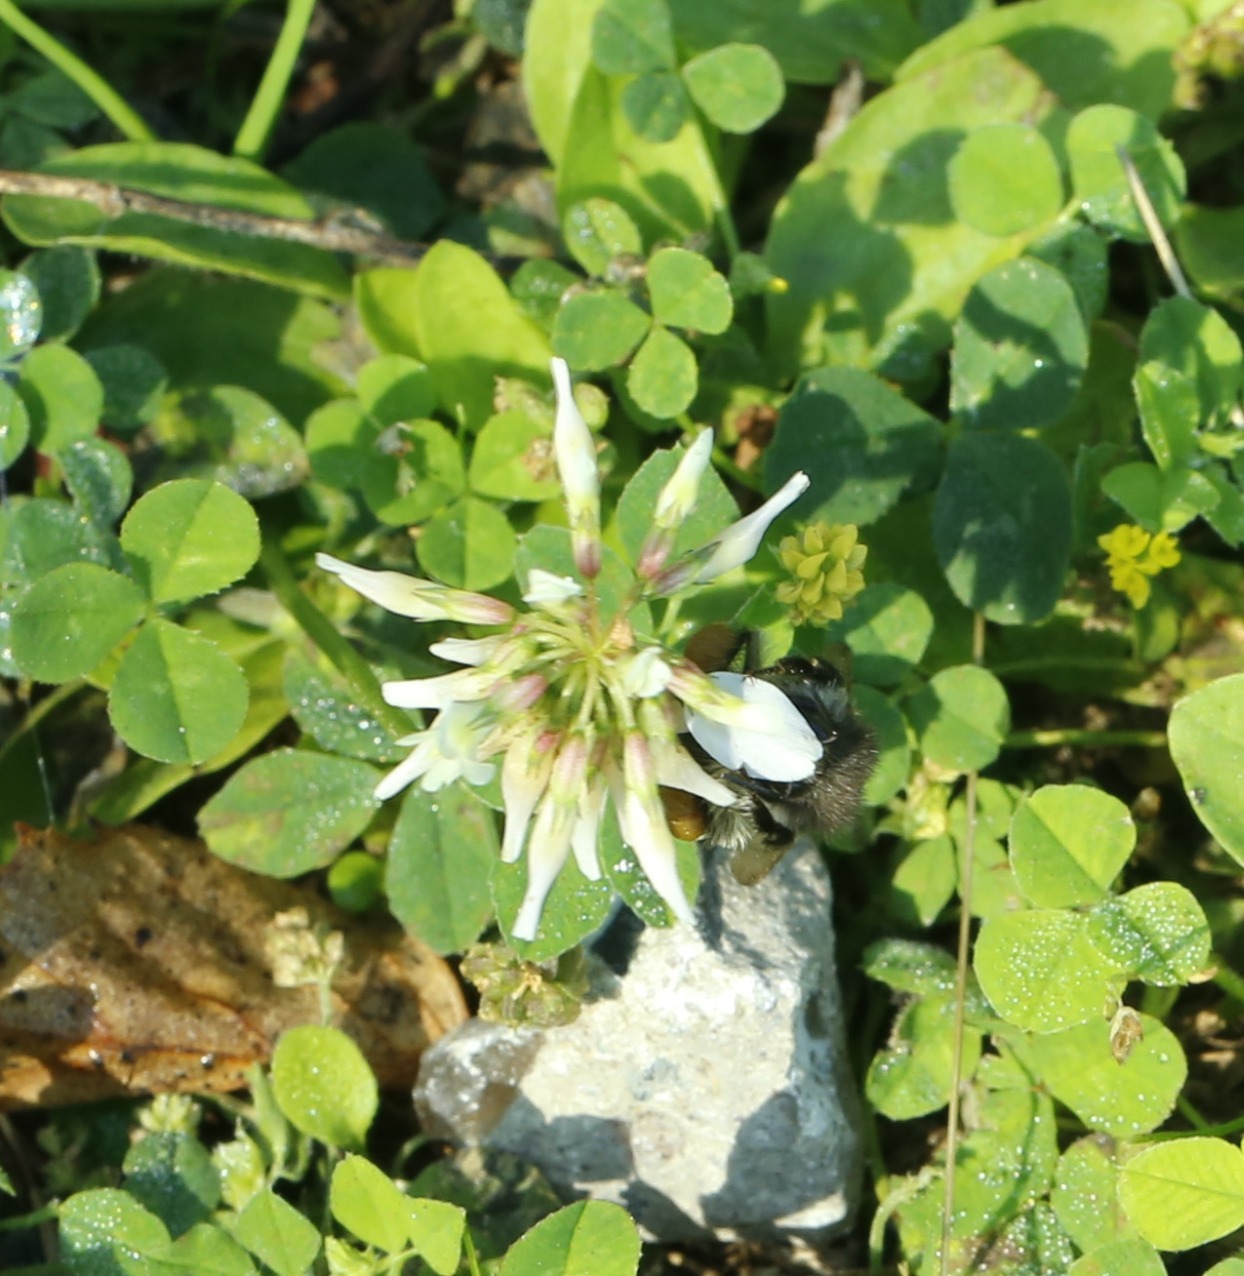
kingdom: Plantae
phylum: Tracheophyta
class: Magnoliopsida
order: Fabales
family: Fabaceae
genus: Trifolium
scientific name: Trifolium repens
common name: Hvid-kløver
